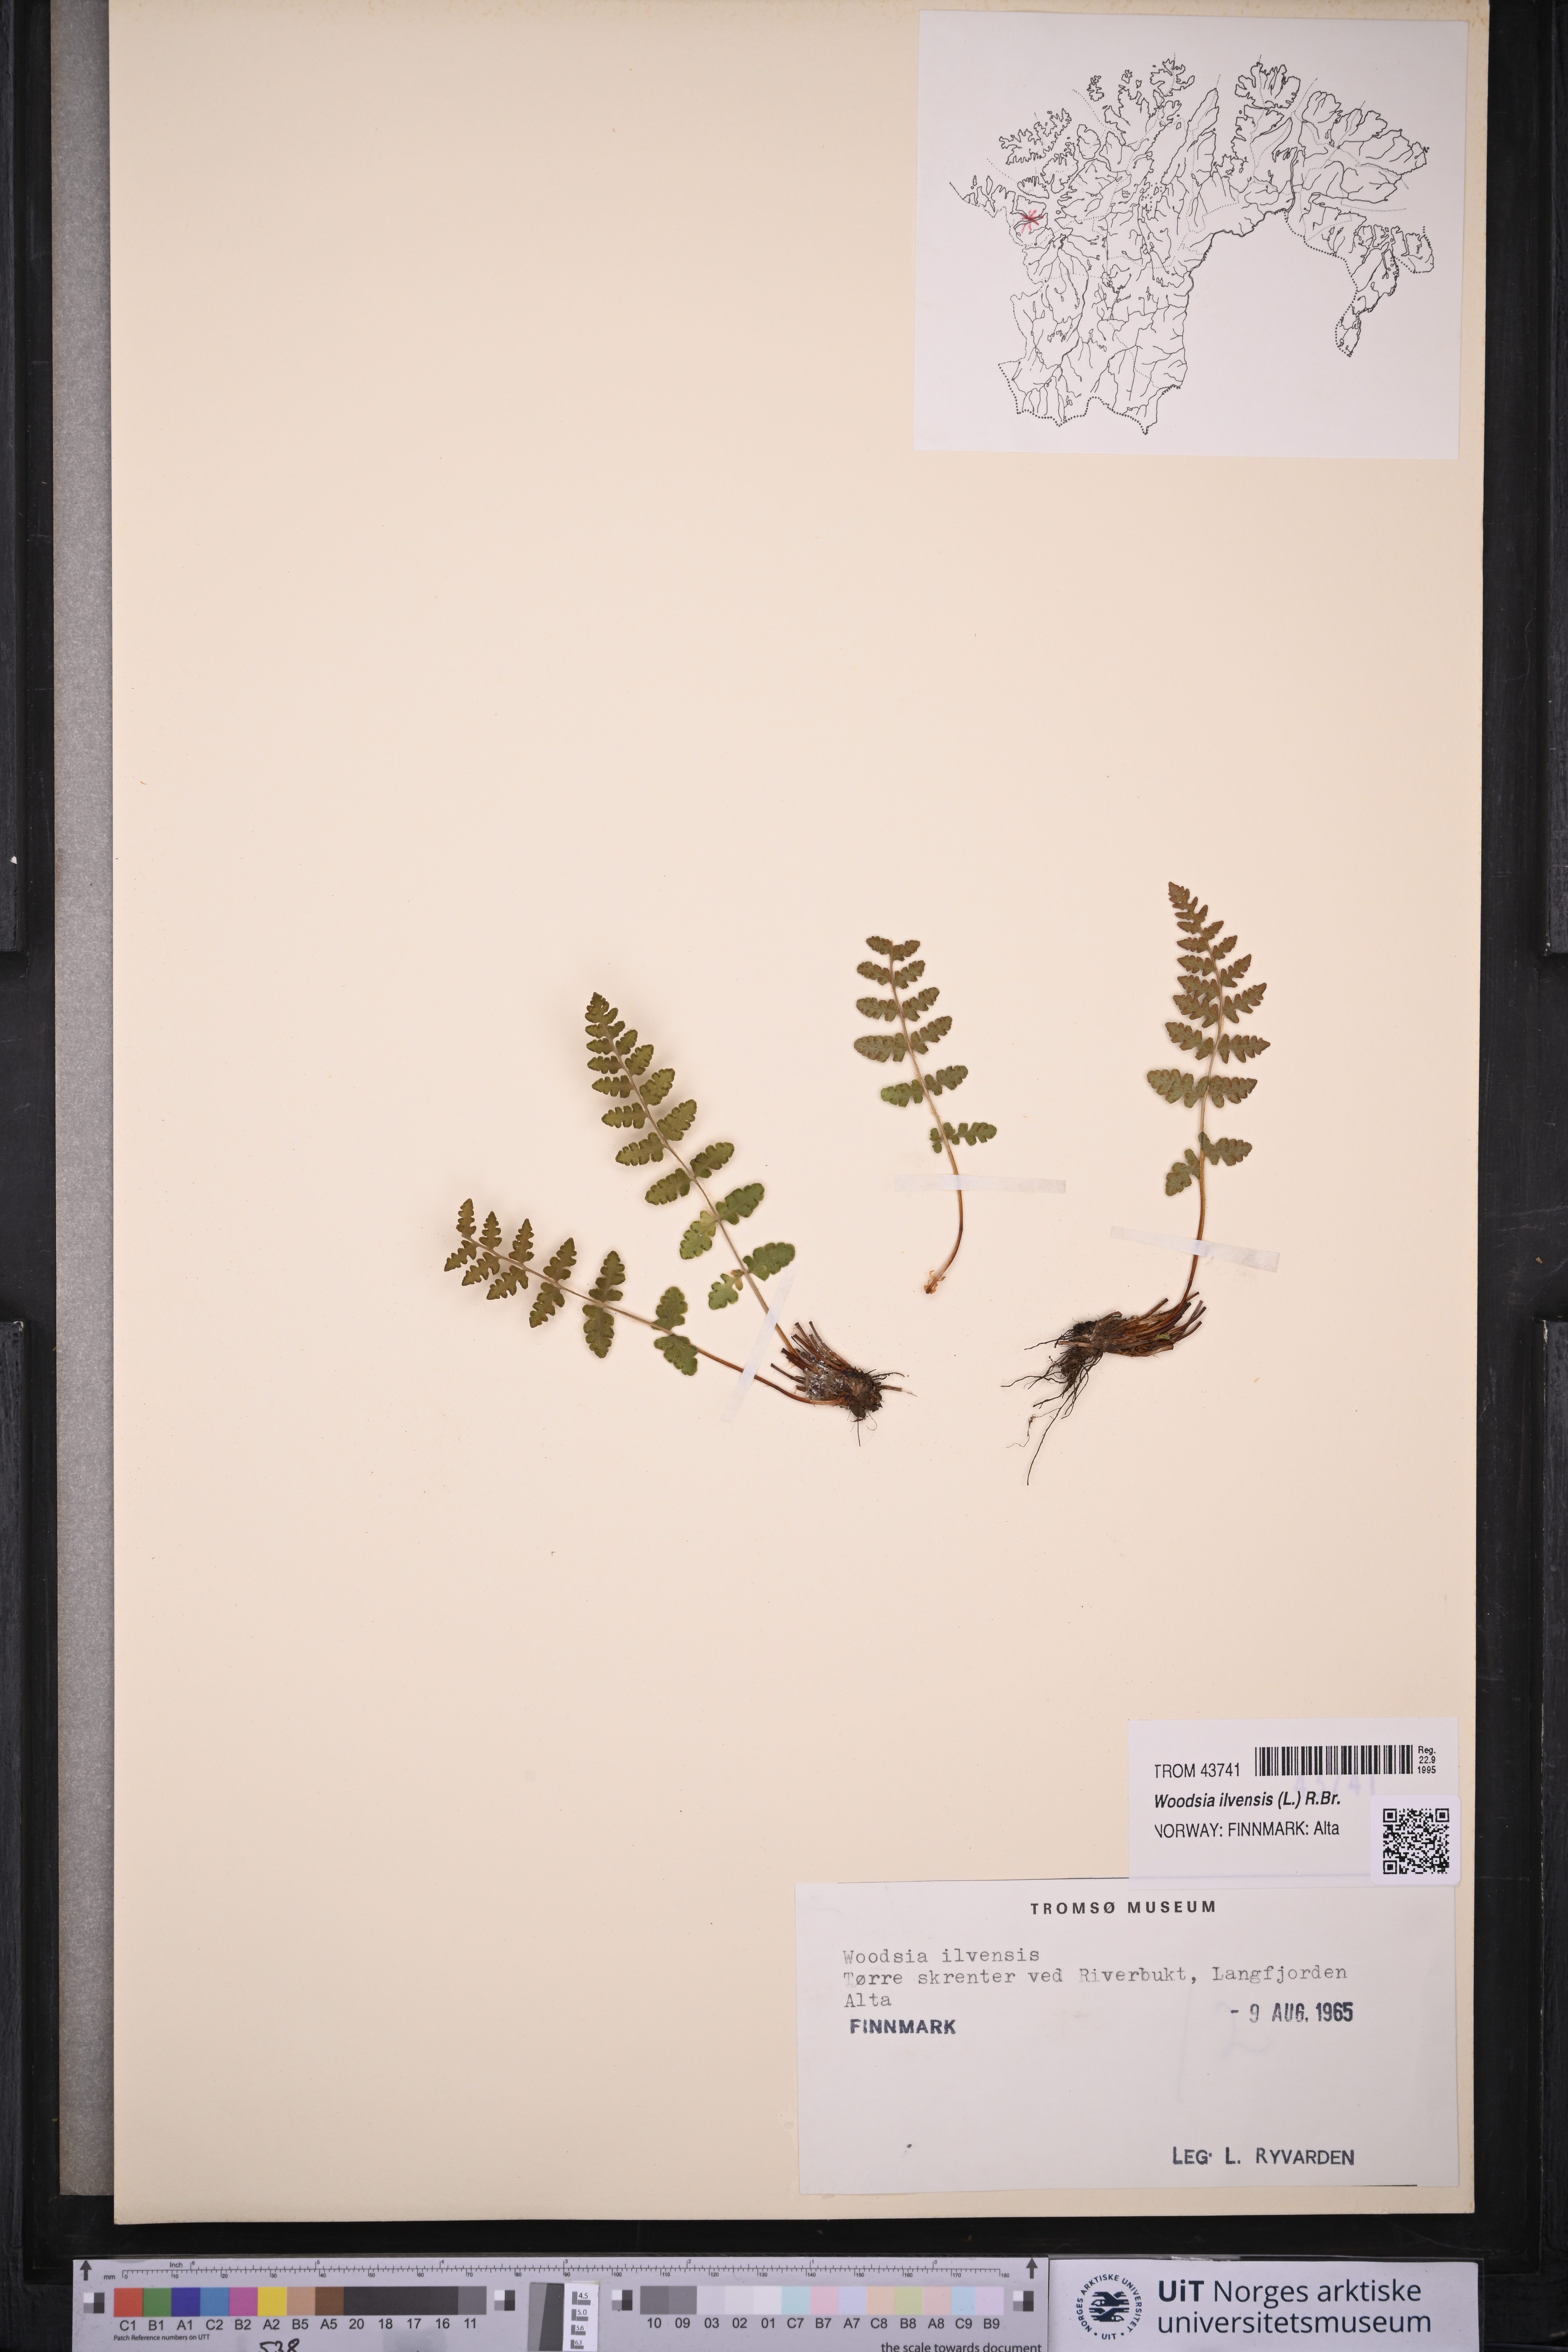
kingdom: Plantae
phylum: Tracheophyta
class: Polypodiopsida
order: Polypodiales
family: Woodsiaceae
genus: Woodsia
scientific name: Woodsia ilvensis
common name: Fragrant woodsia
